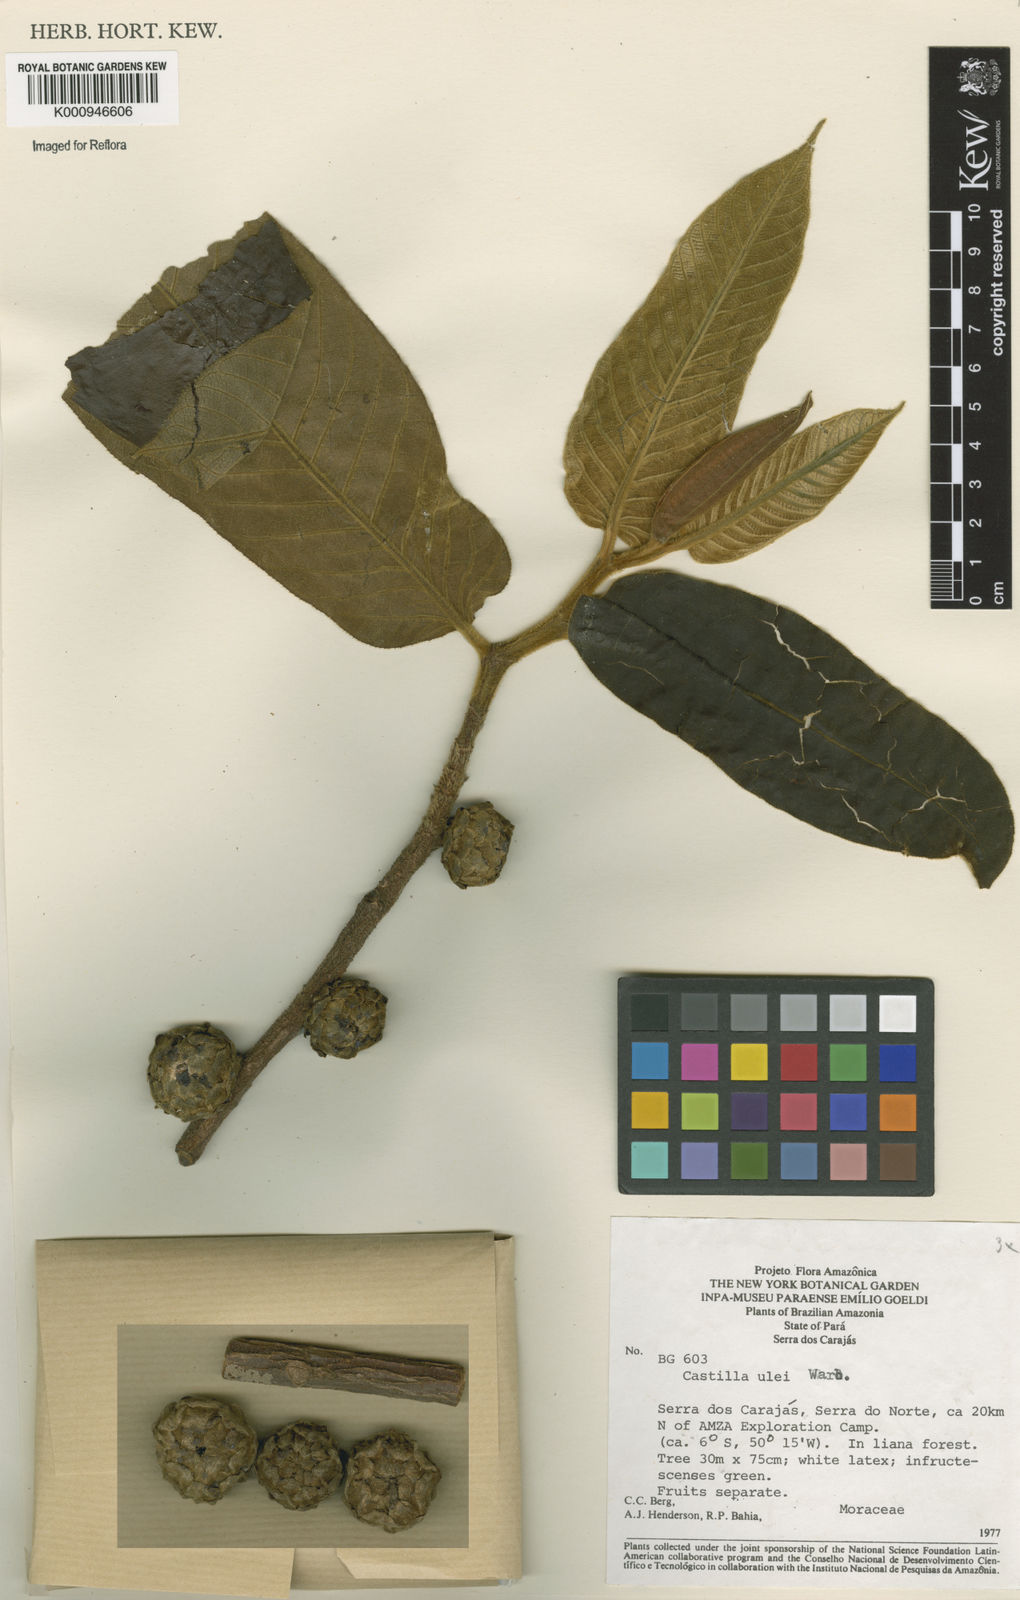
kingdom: Plantae
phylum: Tracheophyta
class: Magnoliopsida
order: Rosales
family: Moraceae
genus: Castilla
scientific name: Castilla ulei
